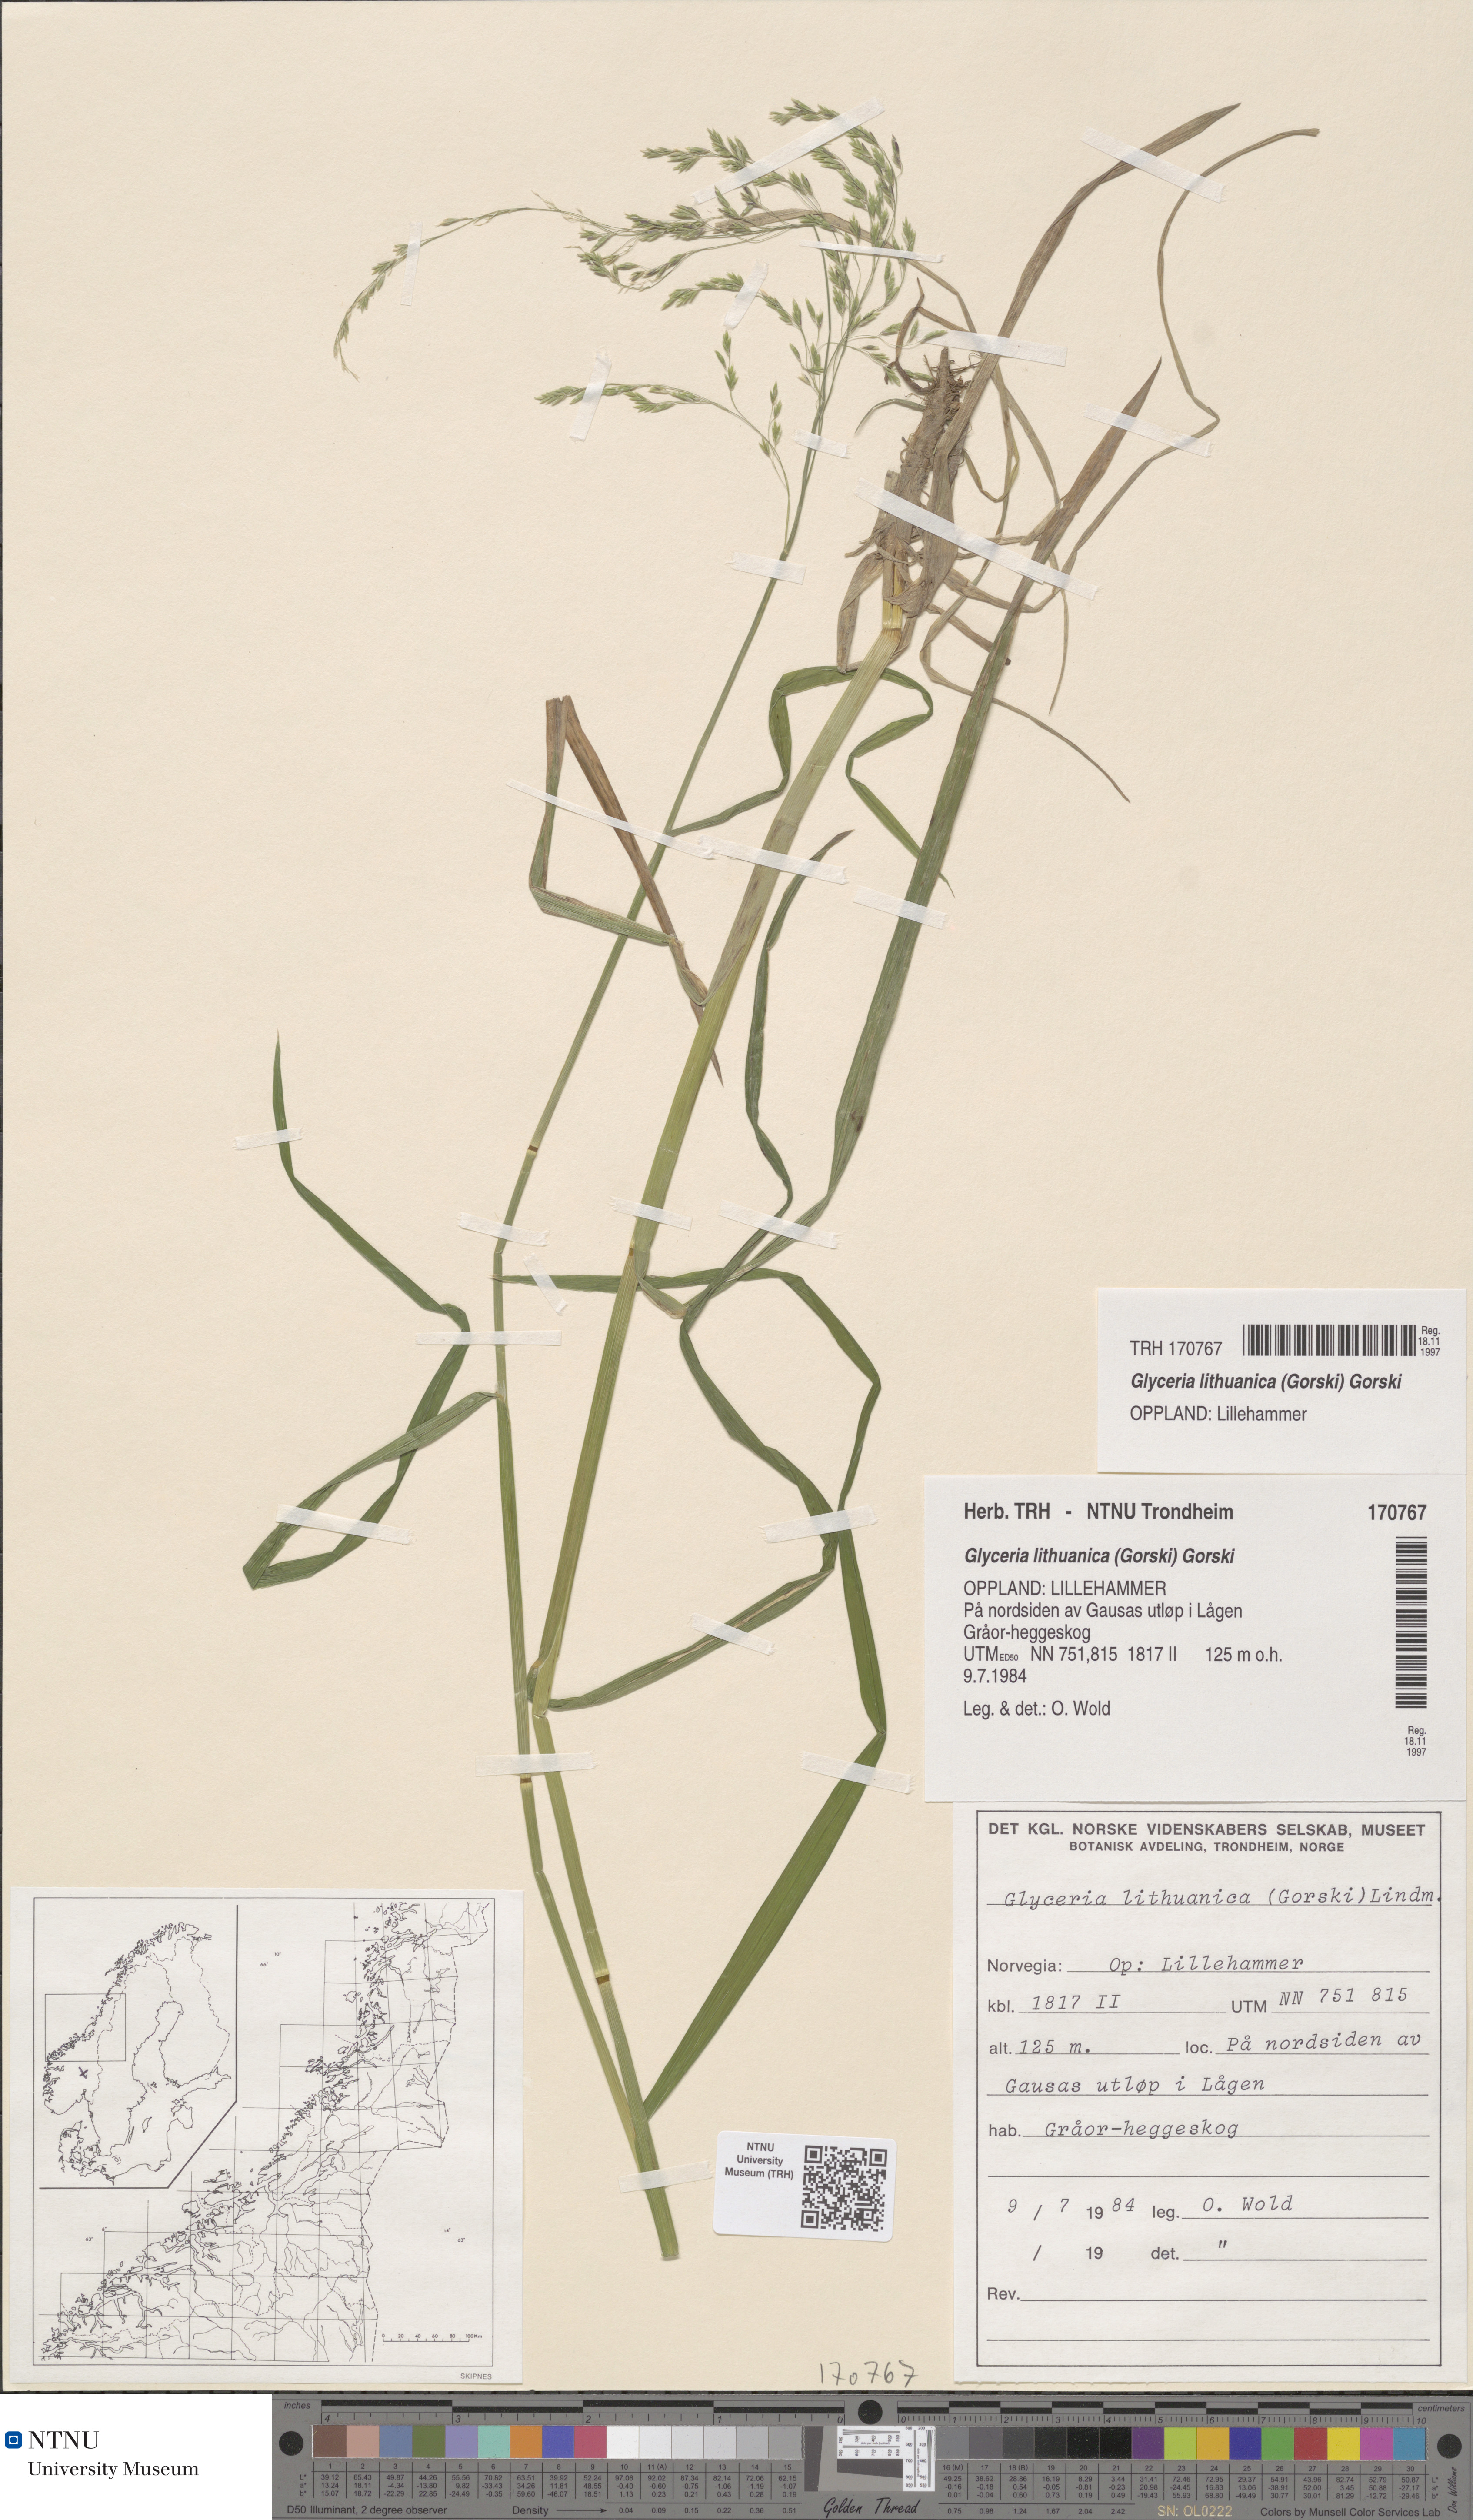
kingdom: Plantae
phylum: Tracheophyta
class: Liliopsida
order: Poales
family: Poaceae
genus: Glyceria
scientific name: Glyceria lithuanica
